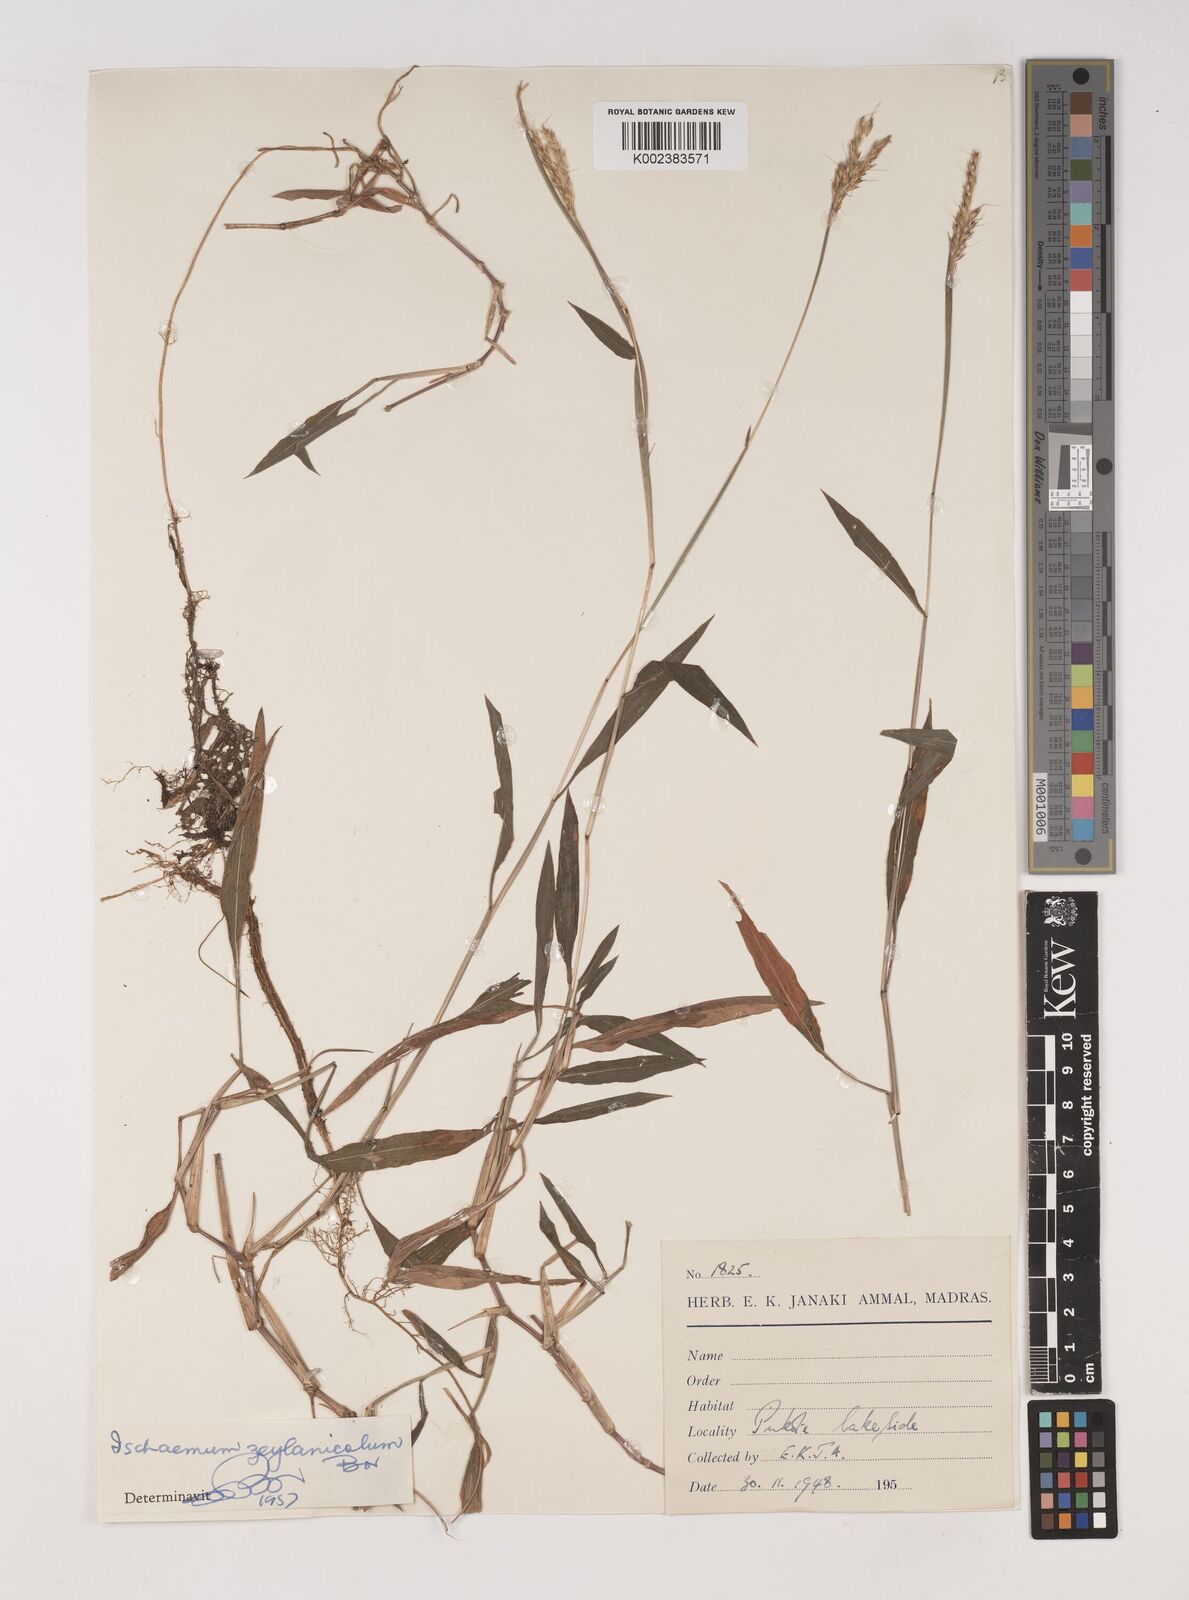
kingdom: Plantae
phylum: Tracheophyta
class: Liliopsida
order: Poales
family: Poaceae
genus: Ischaemum
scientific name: Ischaemum zeylanicola
